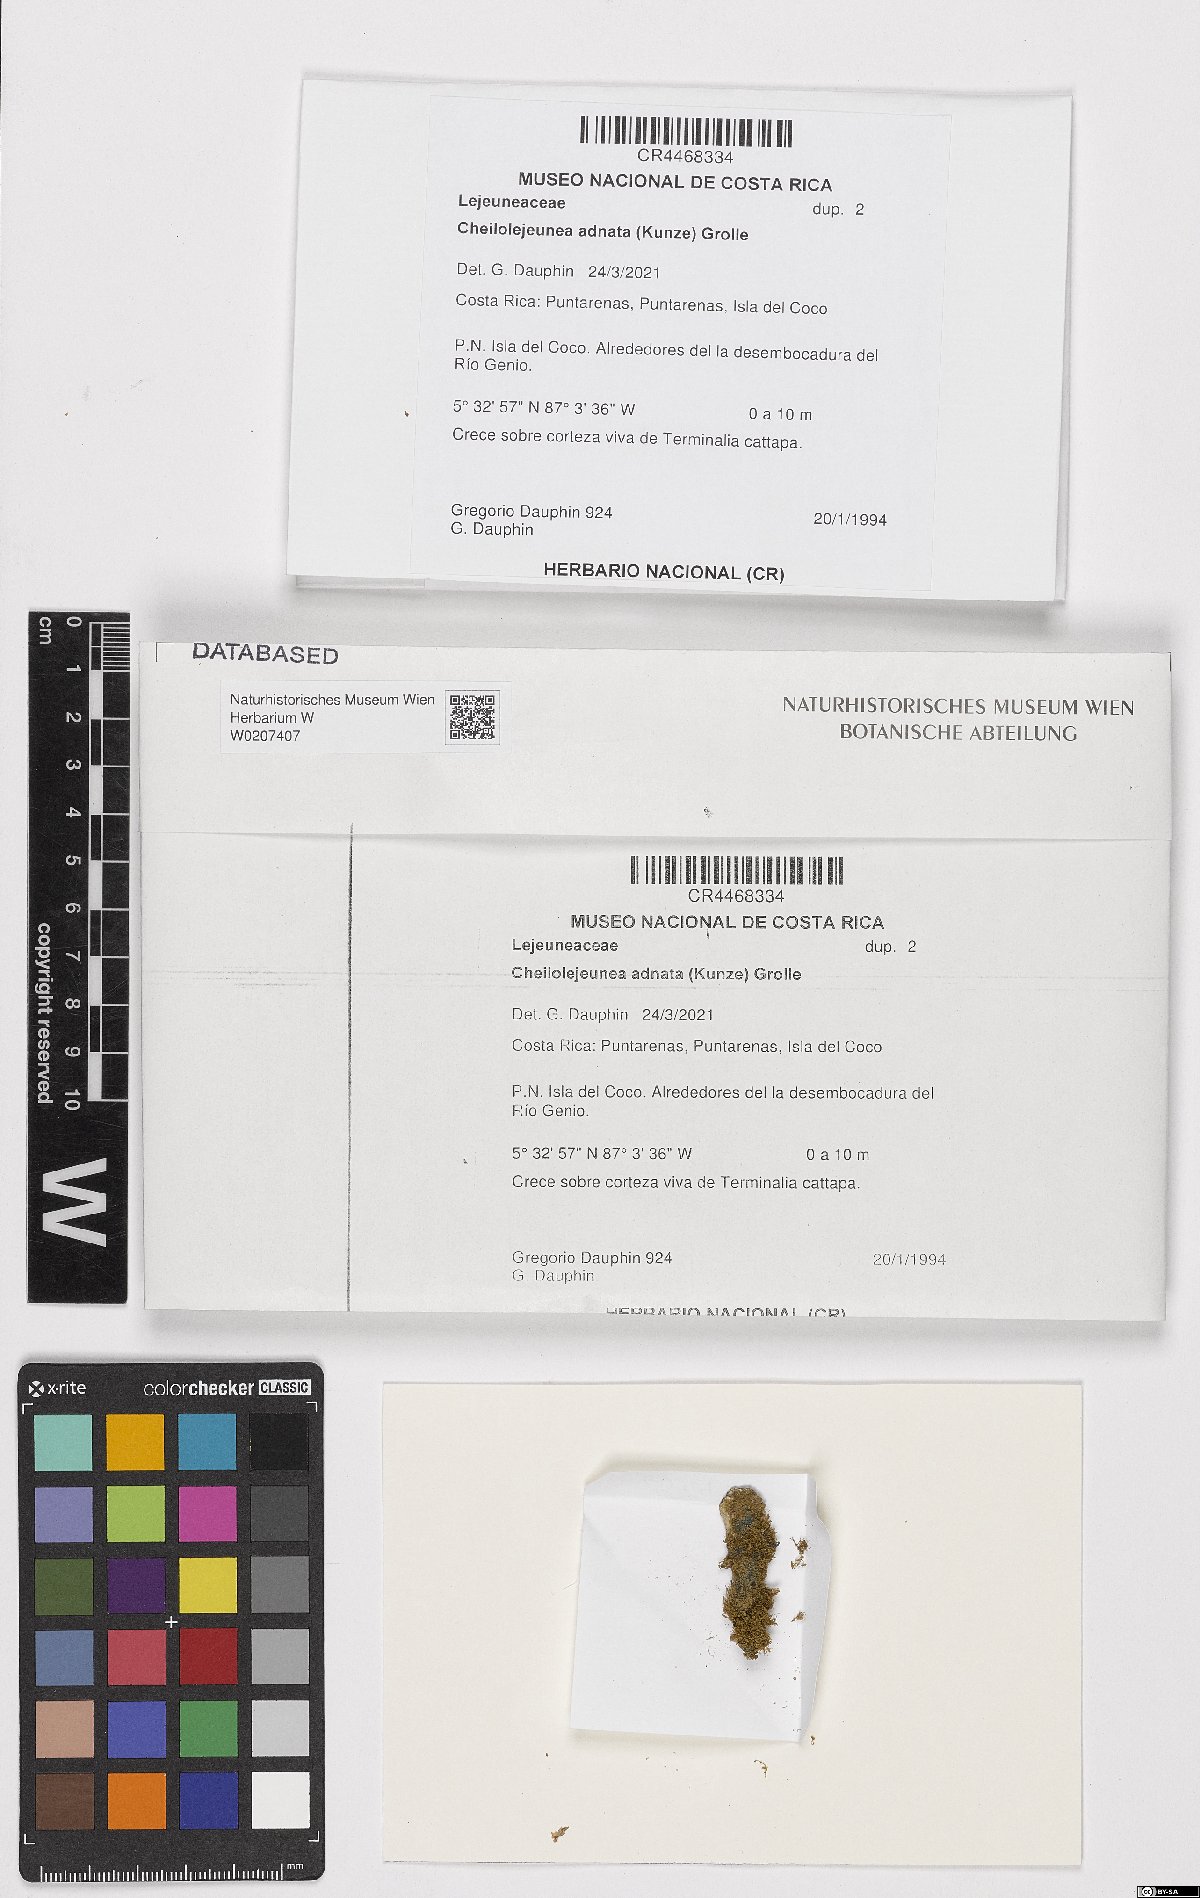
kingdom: Plantae
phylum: Marchantiophyta
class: Jungermanniopsida
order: Porellales
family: Lejeuneaceae
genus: Cheilolejeunea
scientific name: Cheilolejeunea adnata
